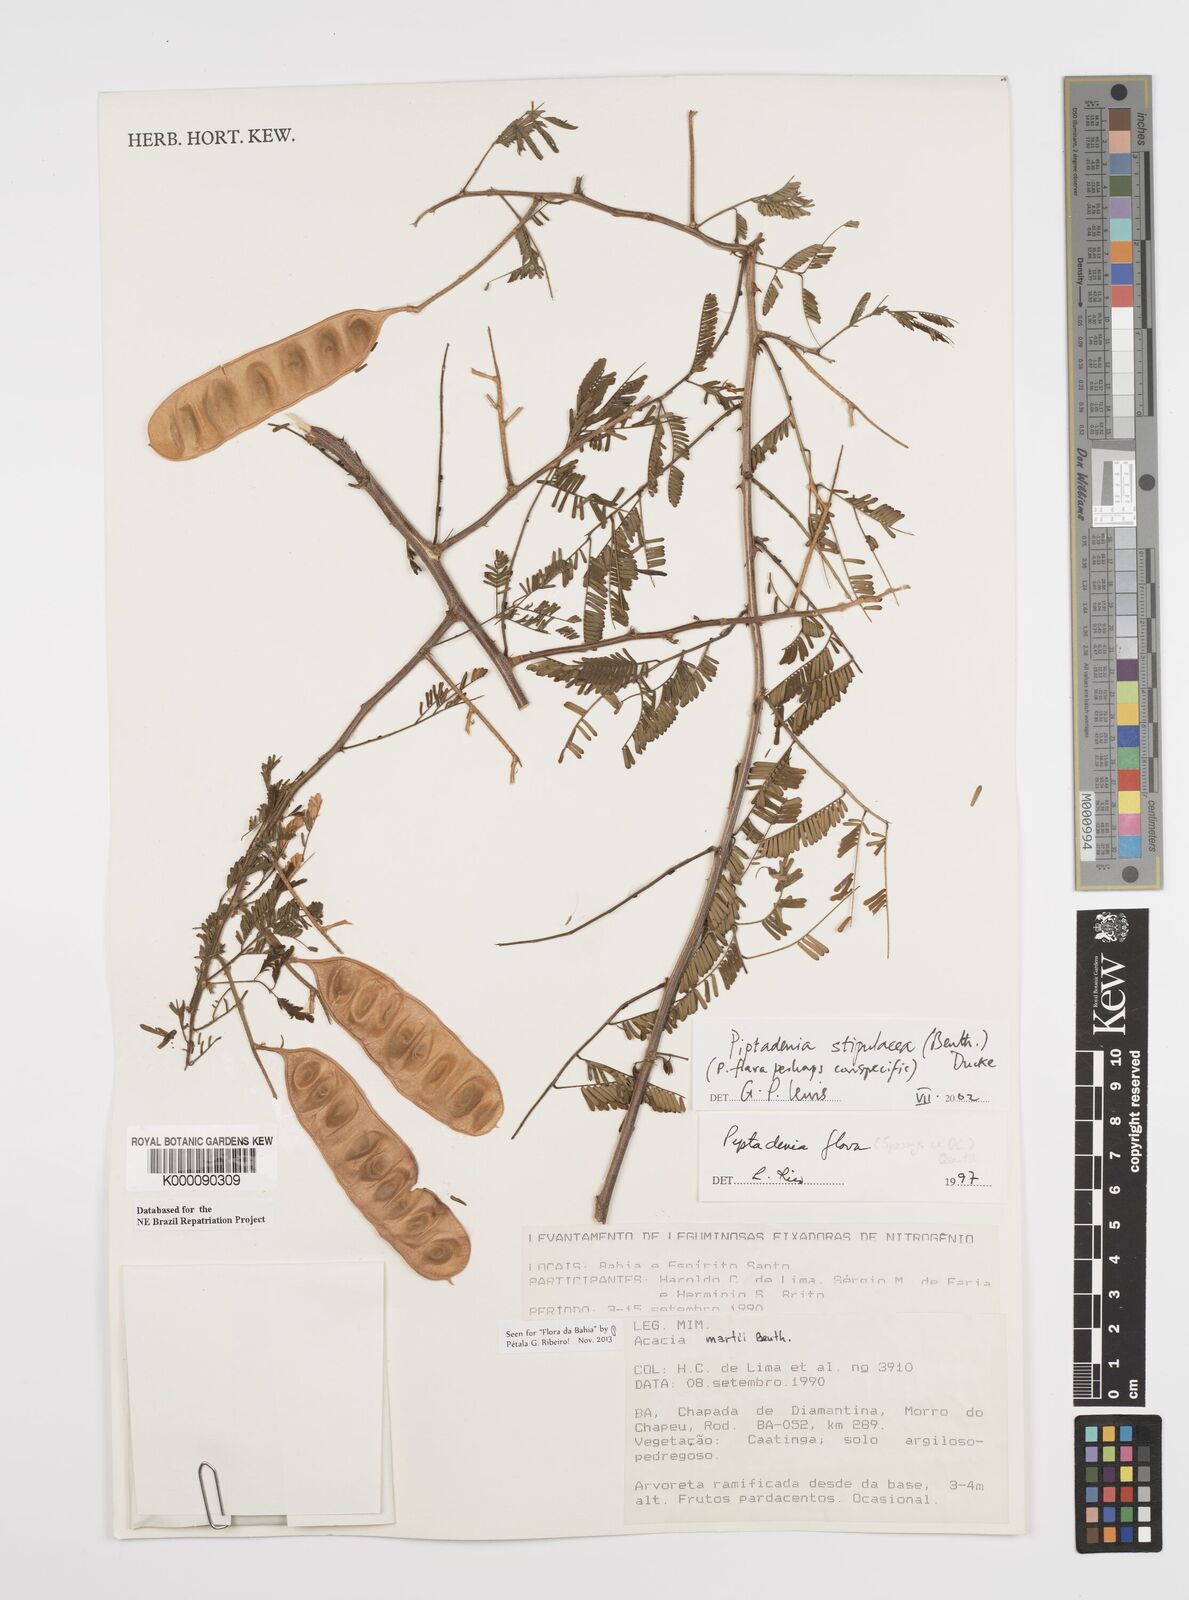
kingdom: Plantae
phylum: Tracheophyta
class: Magnoliopsida
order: Fabales
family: Fabaceae
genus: Piptadenia
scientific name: Piptadenia retusa
